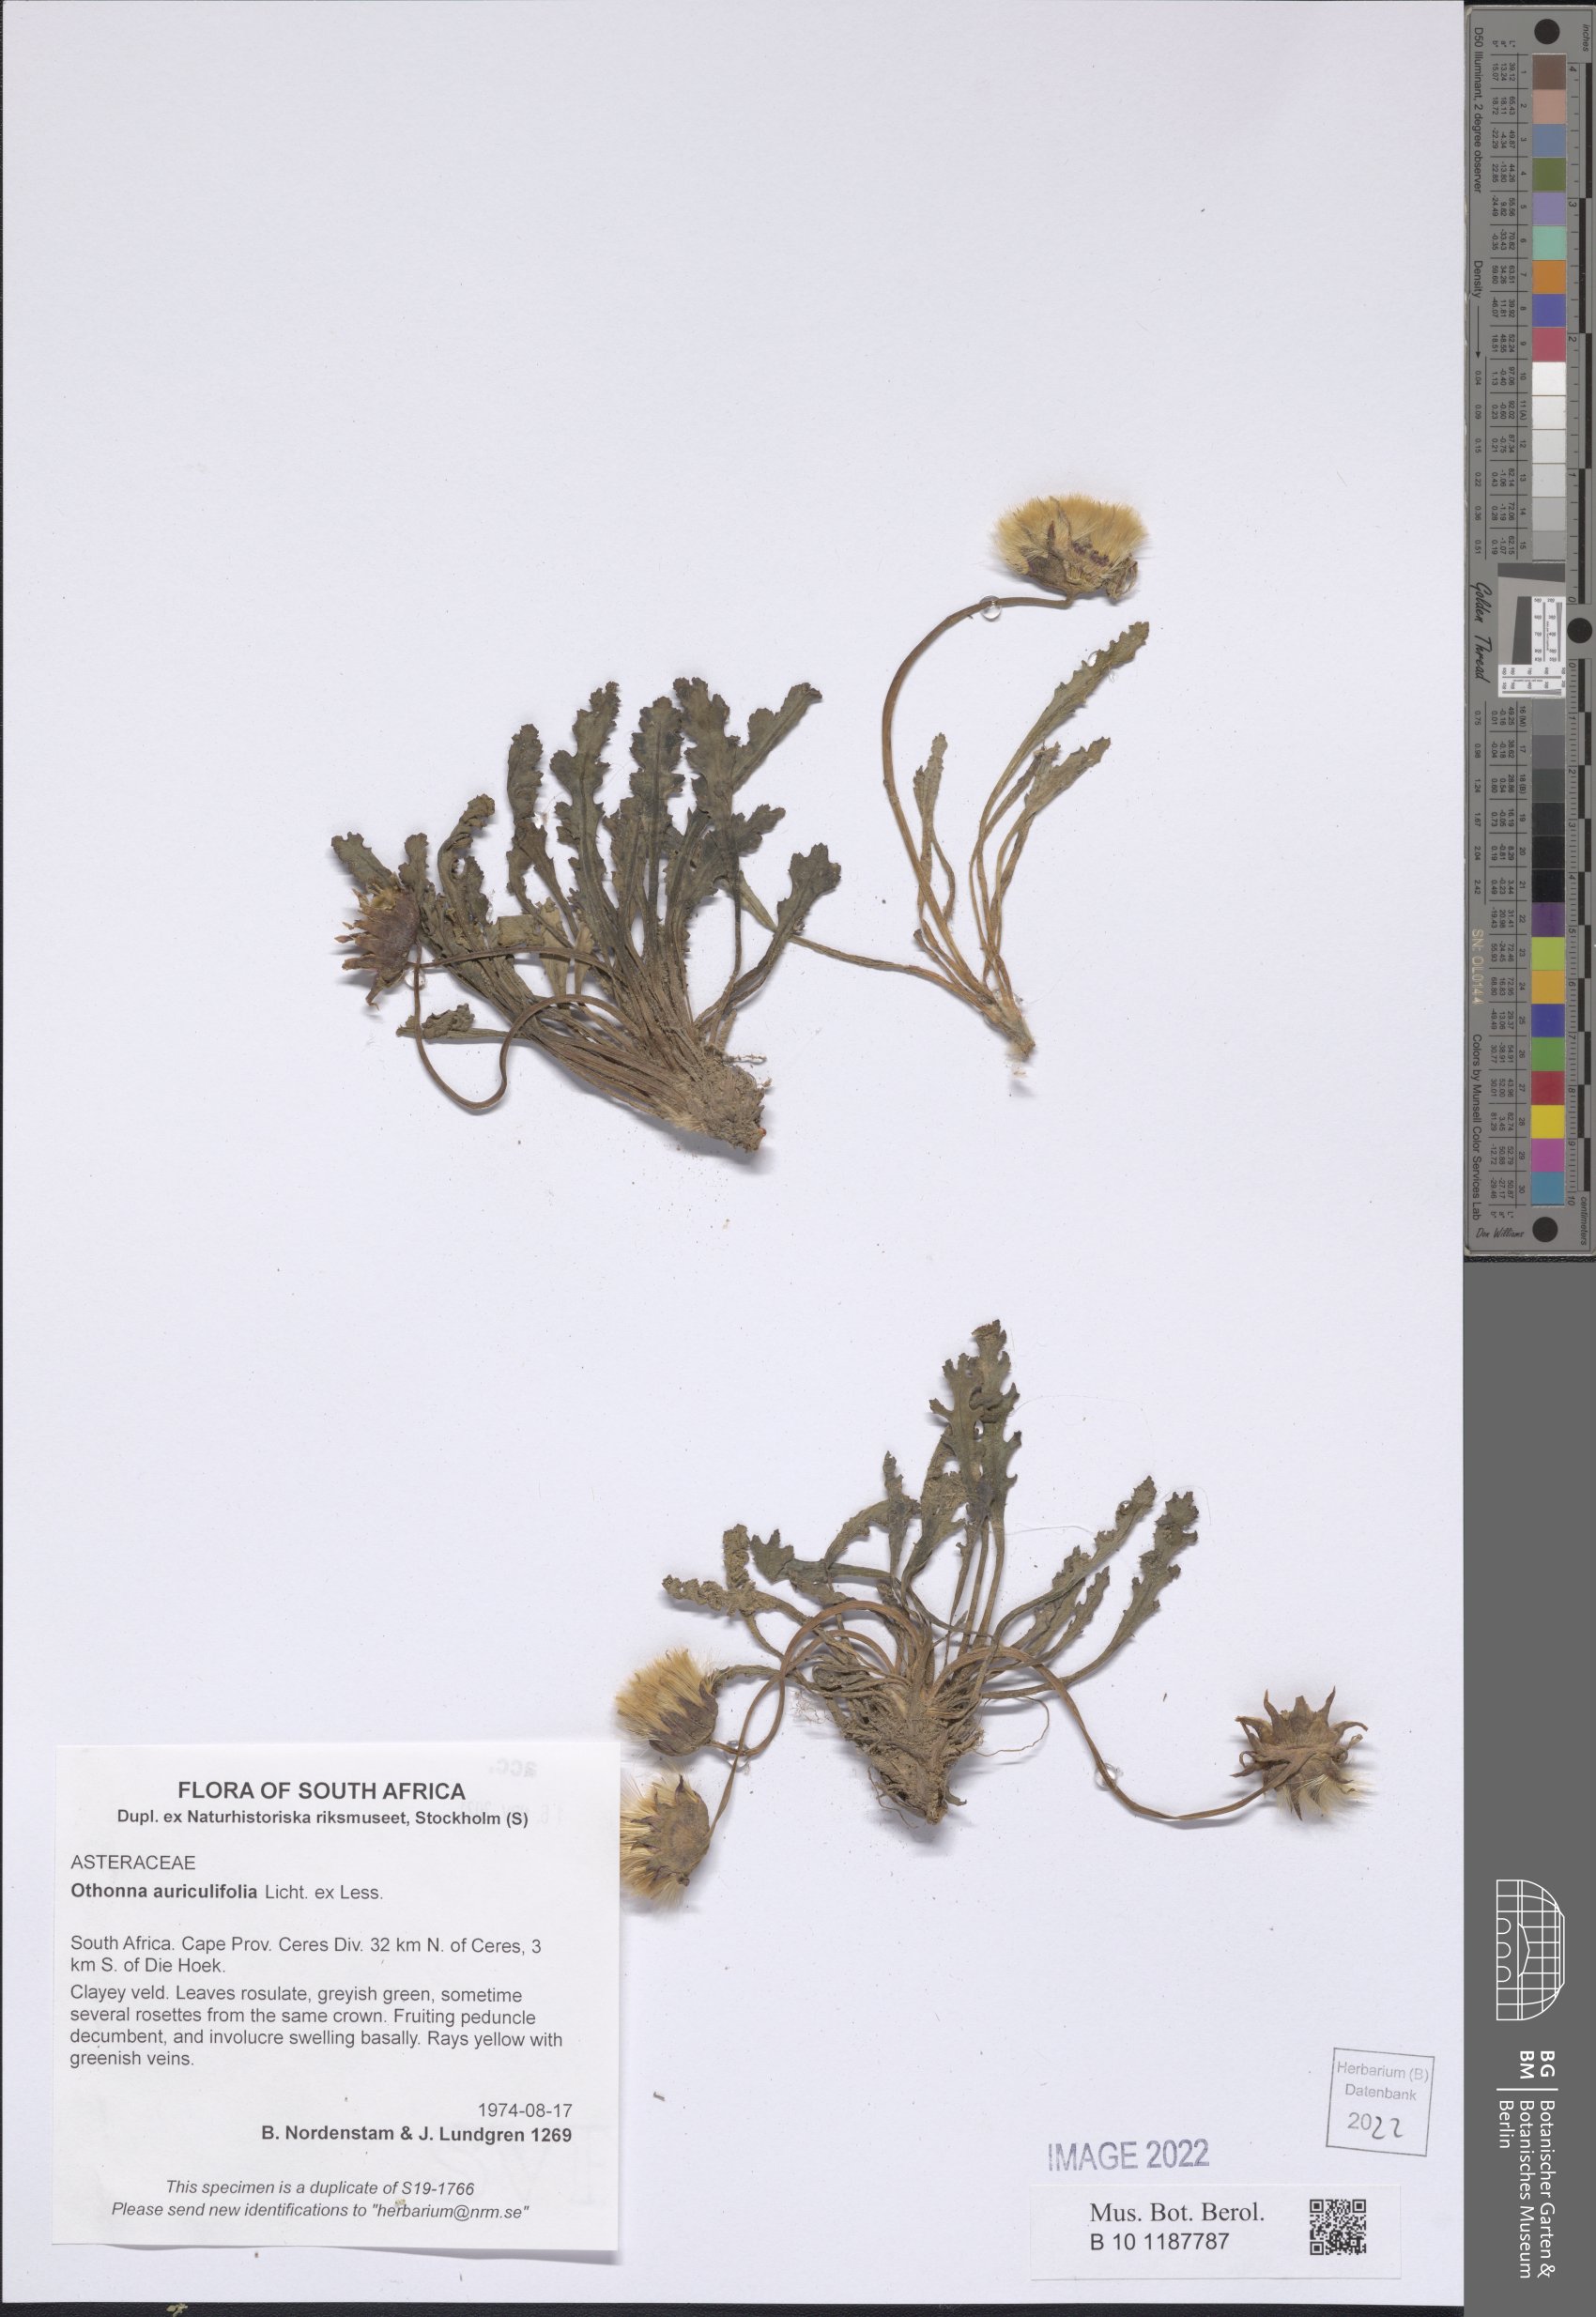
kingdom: Plantae
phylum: Tracheophyta
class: Magnoliopsida
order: Asterales
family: Asteraceae
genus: Othonna
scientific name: Othonna auriculifolia
